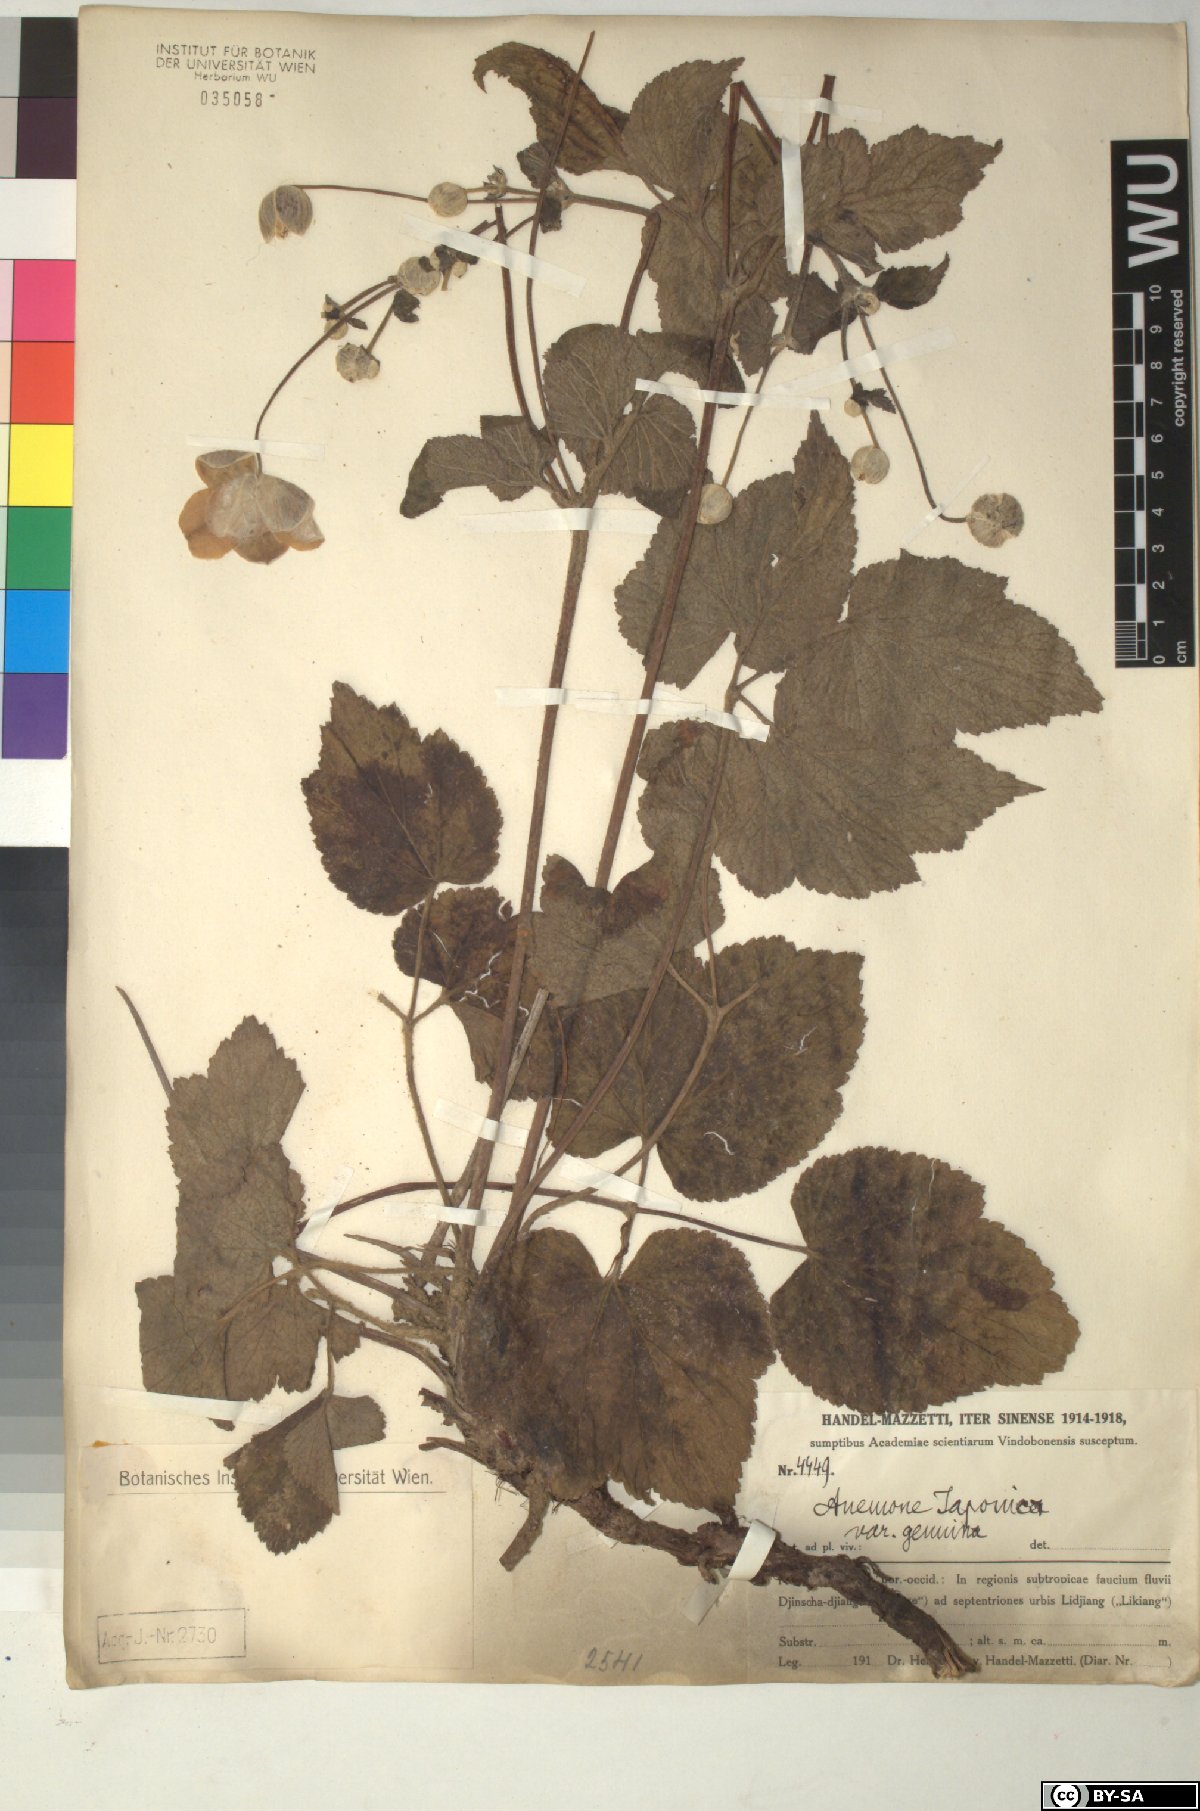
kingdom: Plantae
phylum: Tracheophyta
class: Magnoliopsida
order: Ranunculales
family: Ranunculaceae
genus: Eriocapitella
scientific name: Eriocapitella japonica
